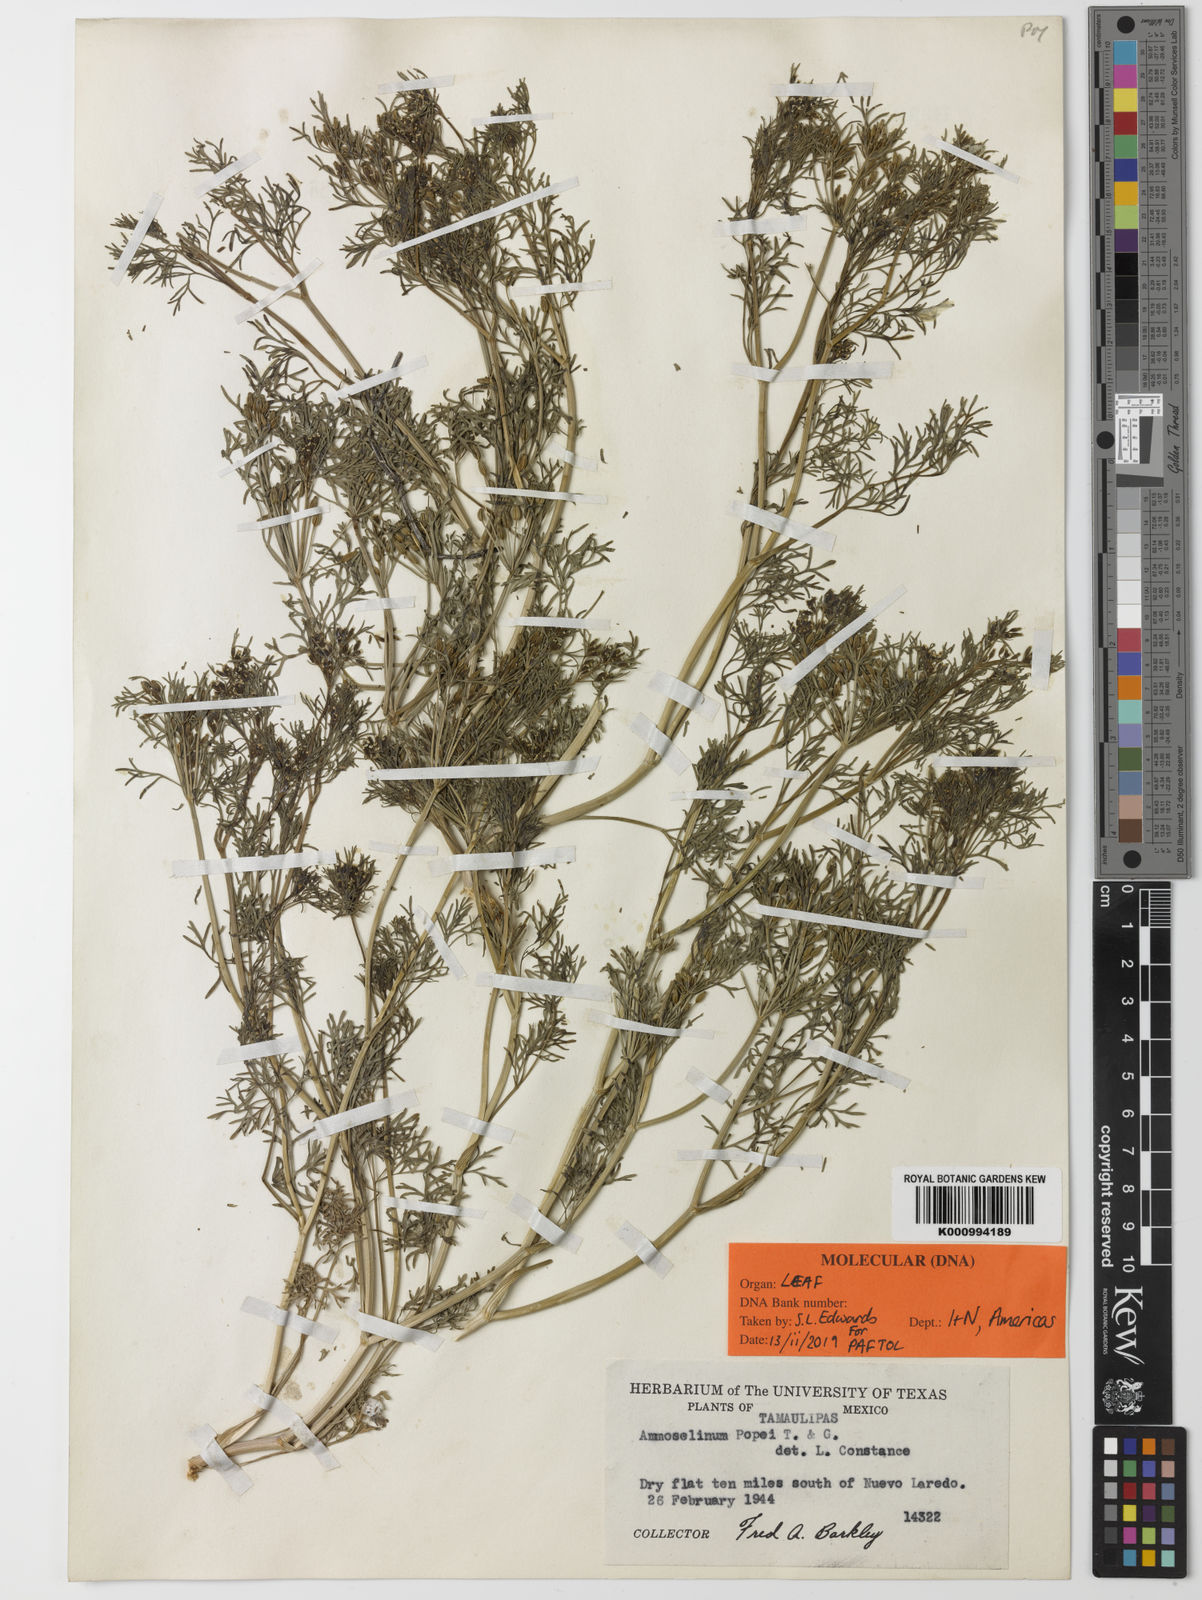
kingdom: Plantae
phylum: Tracheophyta
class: Magnoliopsida
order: Apiales
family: Apiaceae
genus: Ammoselinum
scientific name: Ammoselinum popei
